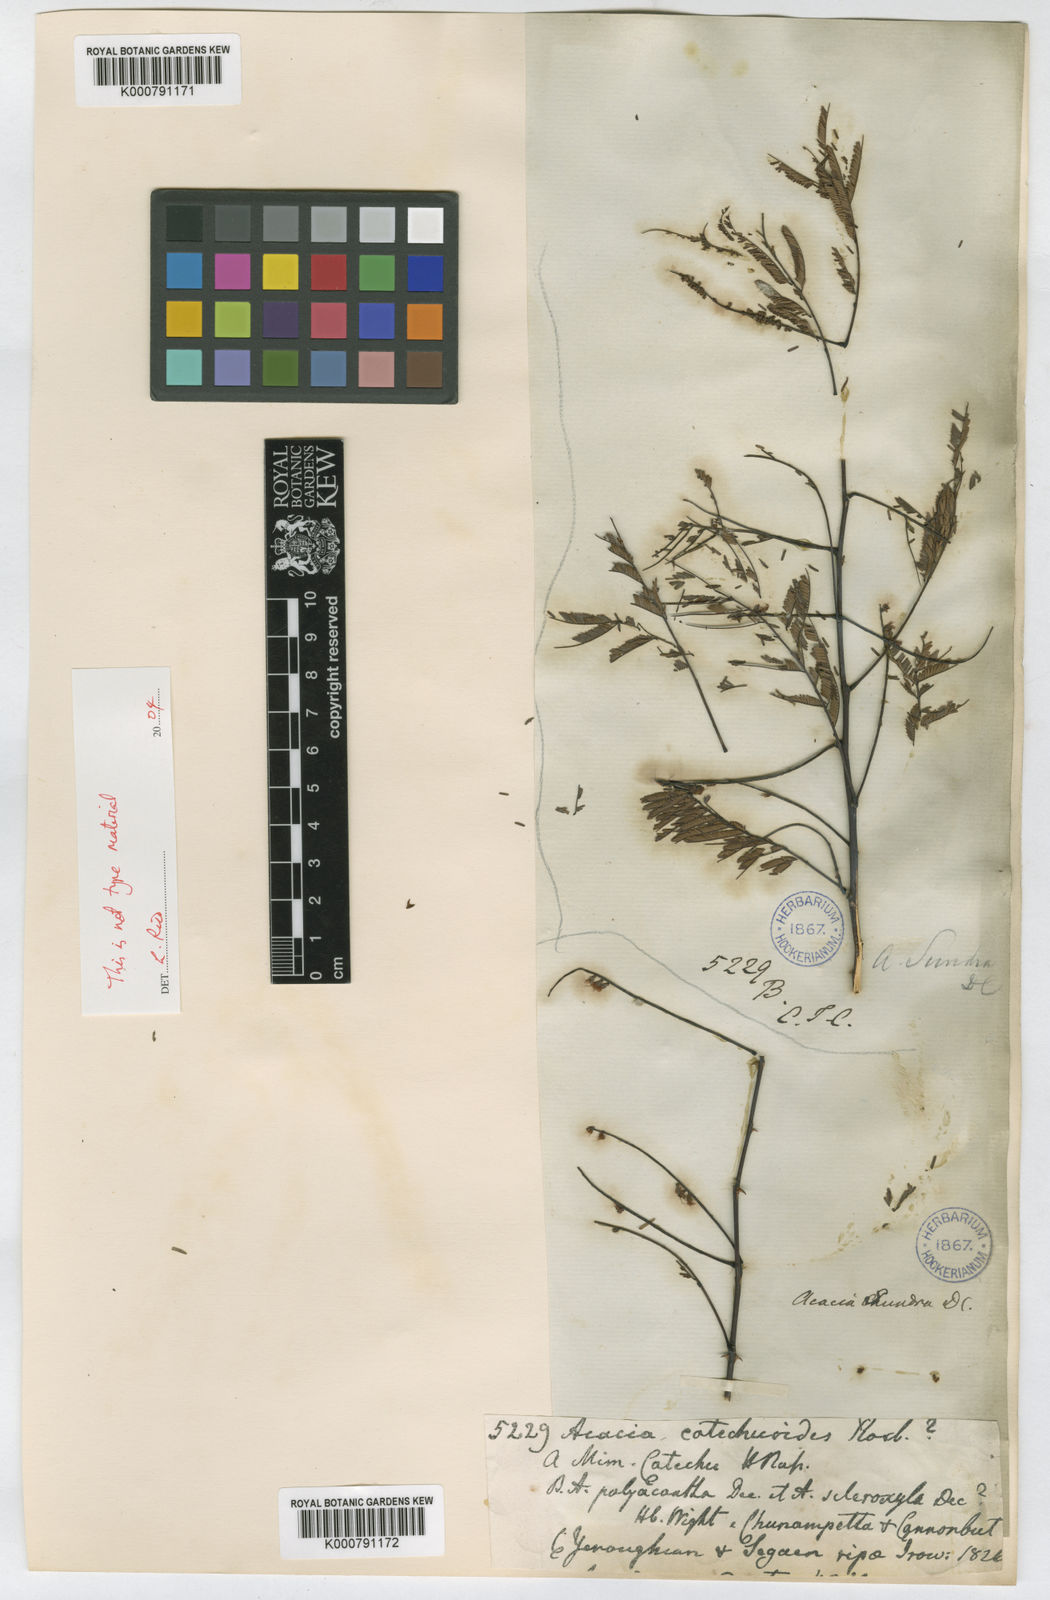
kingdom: Plantae
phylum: Tracheophyta
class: Magnoliopsida
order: Fabales
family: Fabaceae
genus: Senegalia
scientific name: Senegalia chundra
